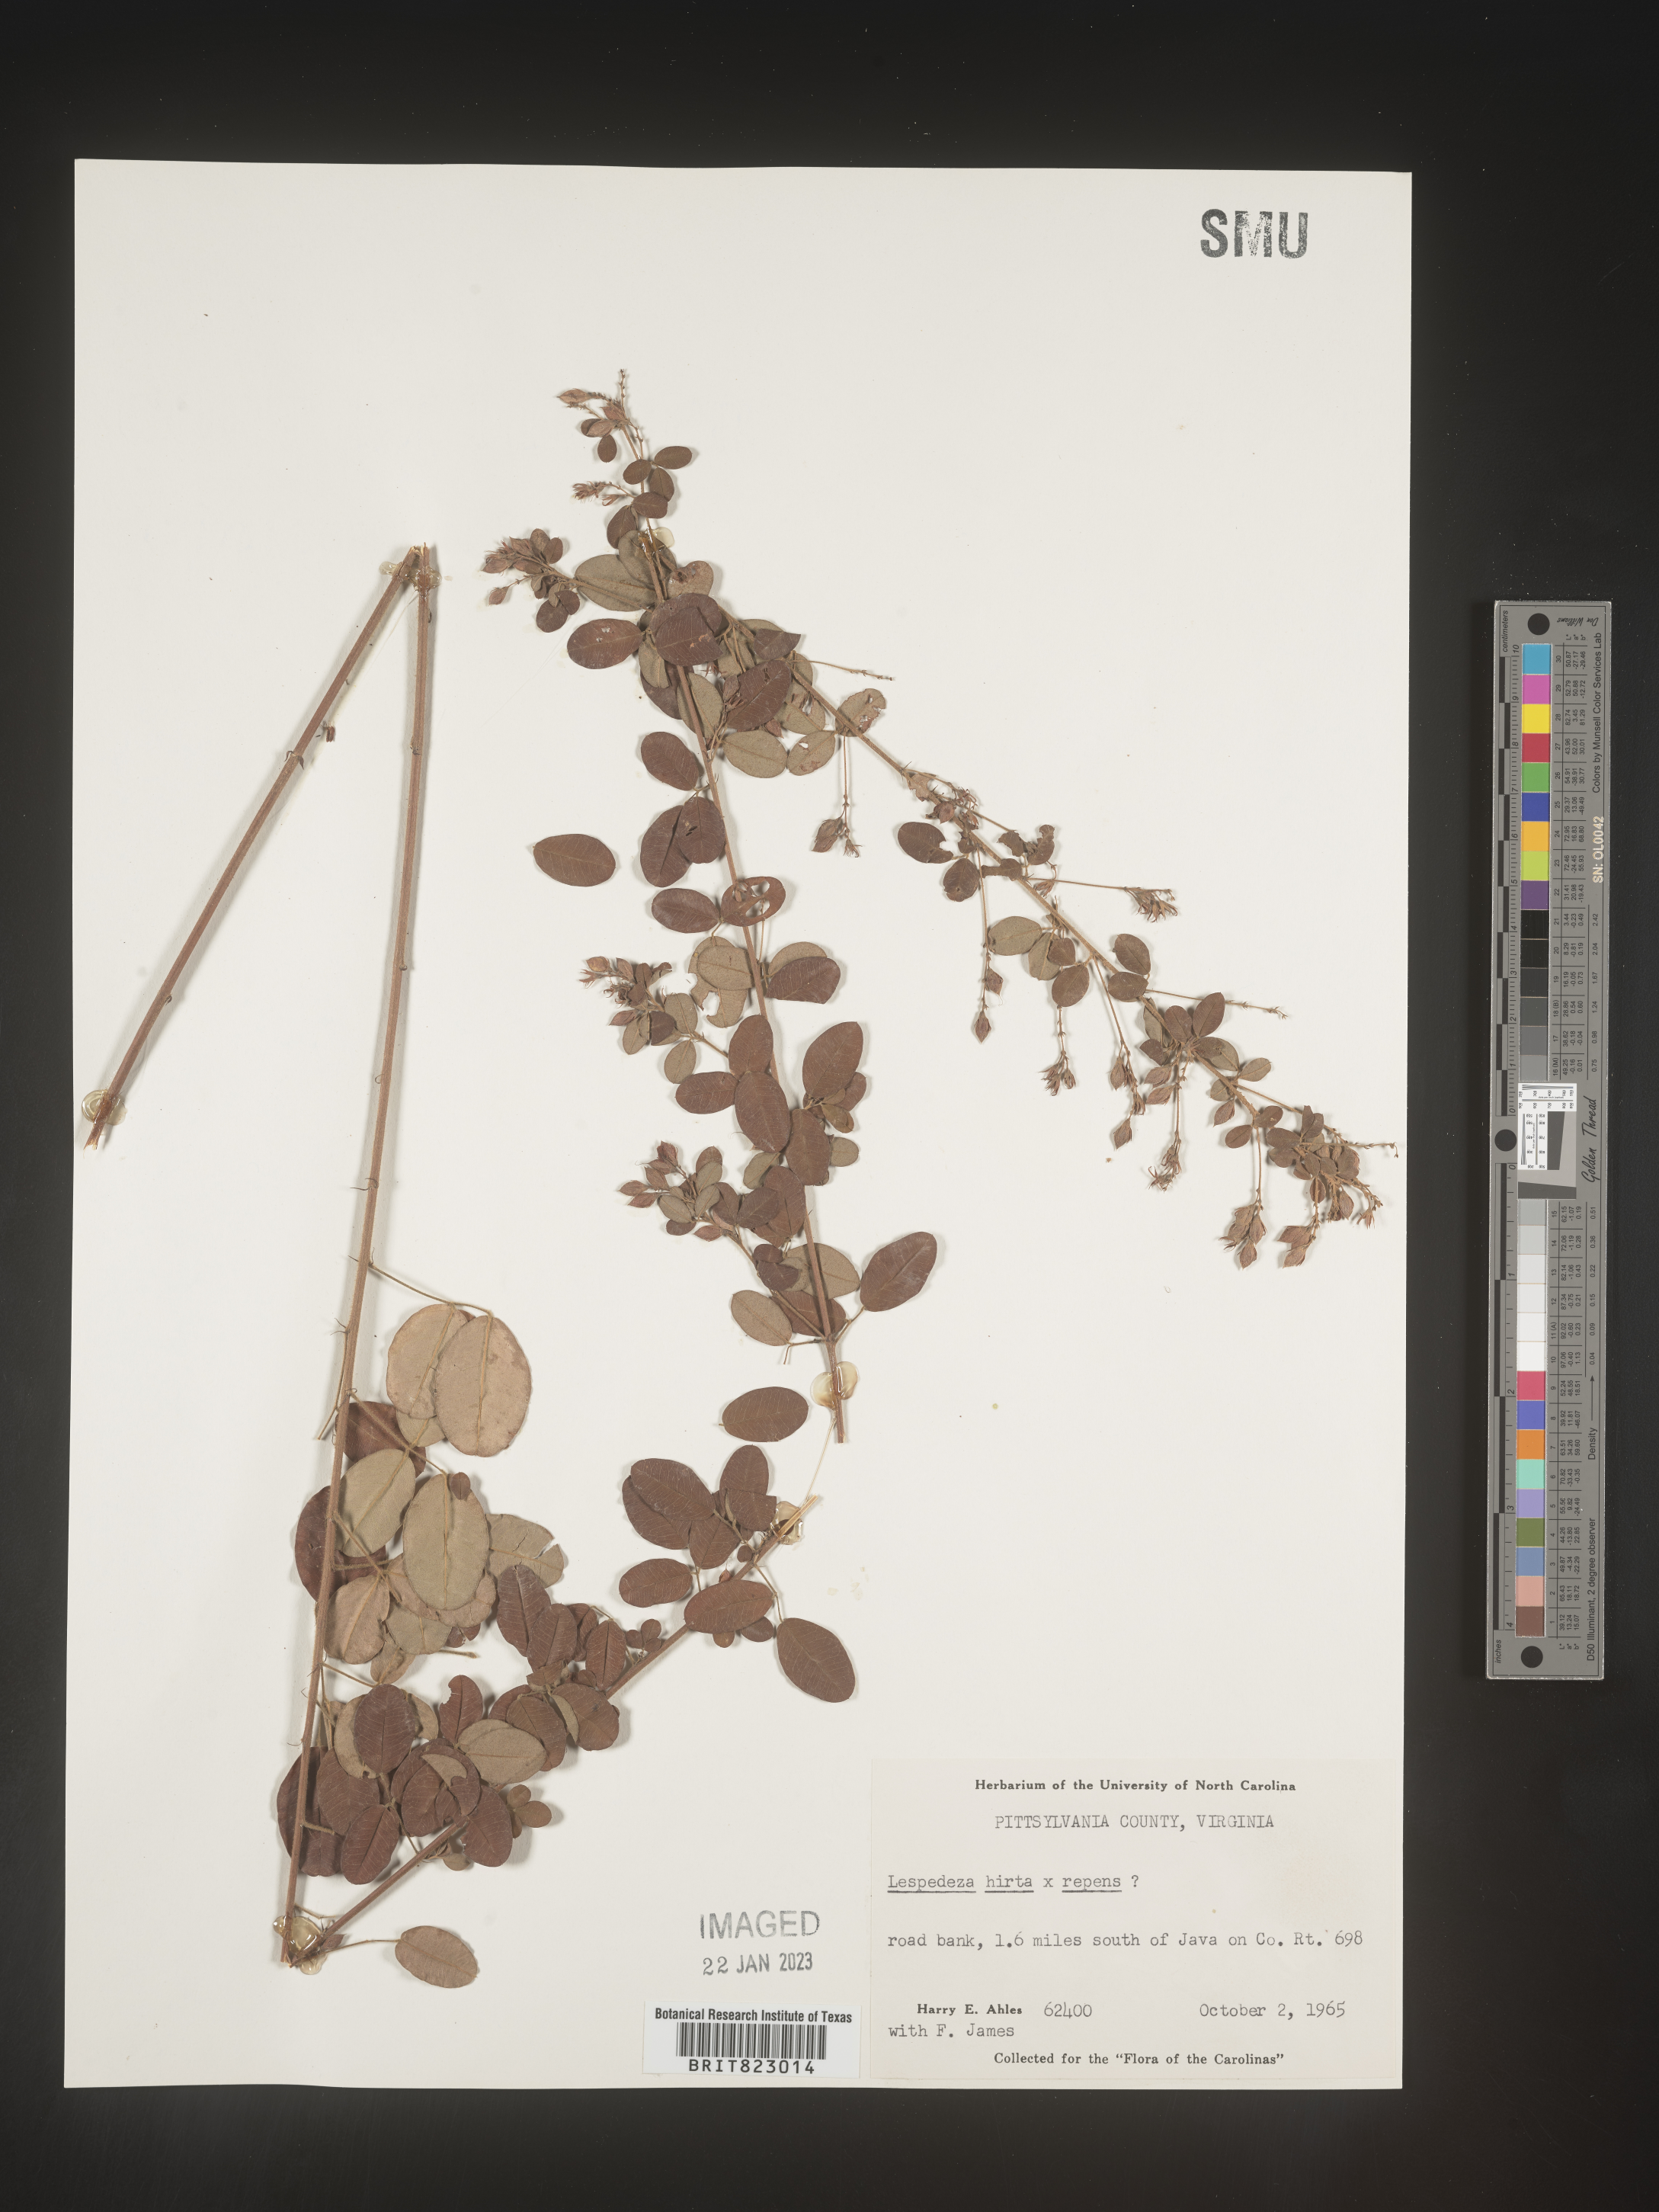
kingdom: Plantae
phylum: Tracheophyta
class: Magnoliopsida
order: Fabales
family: Fabaceae
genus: Lespedeza
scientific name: Lespedeza hirta
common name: Hairy lespedeza
